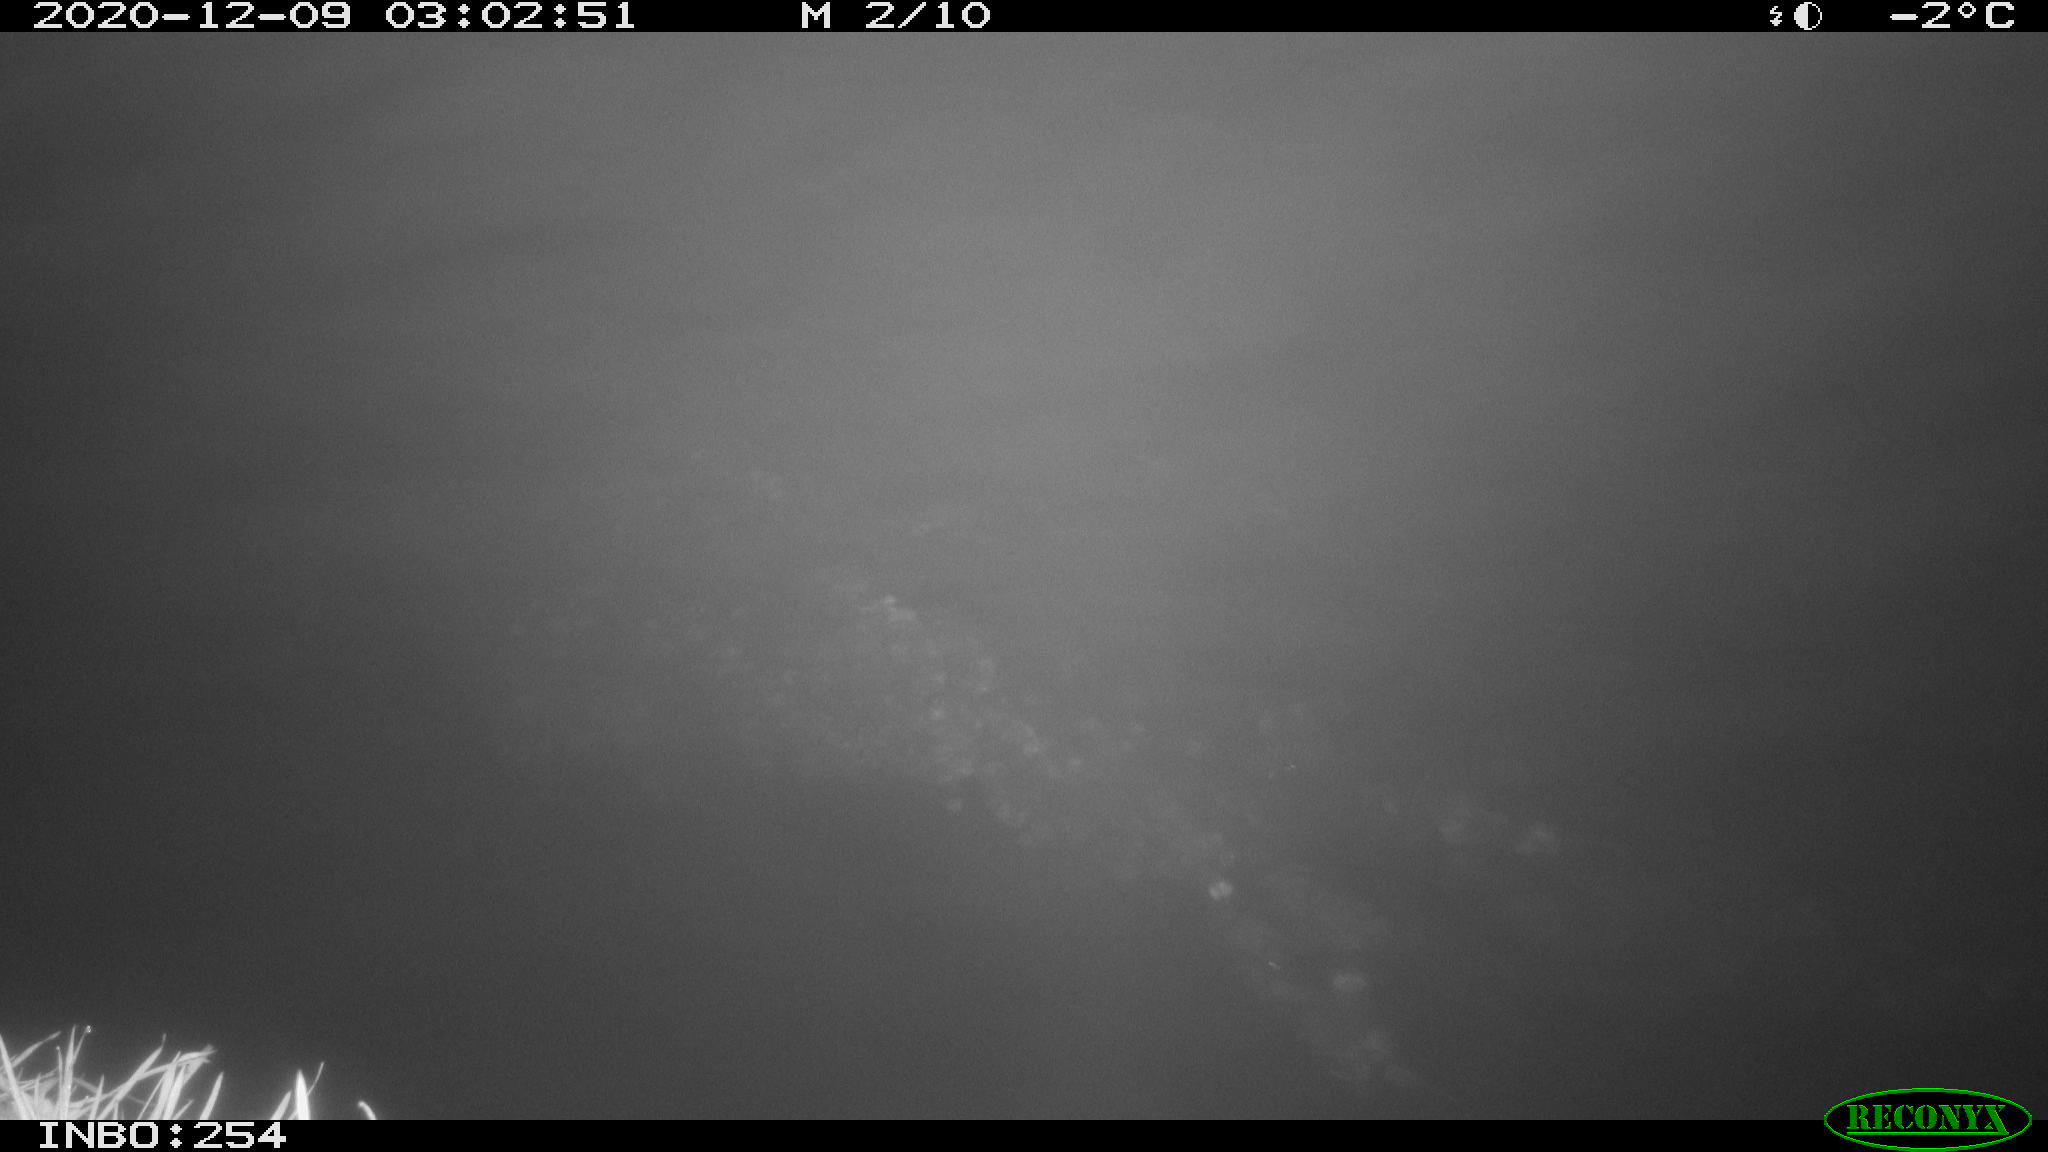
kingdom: Animalia
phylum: Chordata
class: Aves
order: Anseriformes
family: Anatidae
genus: Anas
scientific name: Anas platyrhynchos
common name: Mallard
